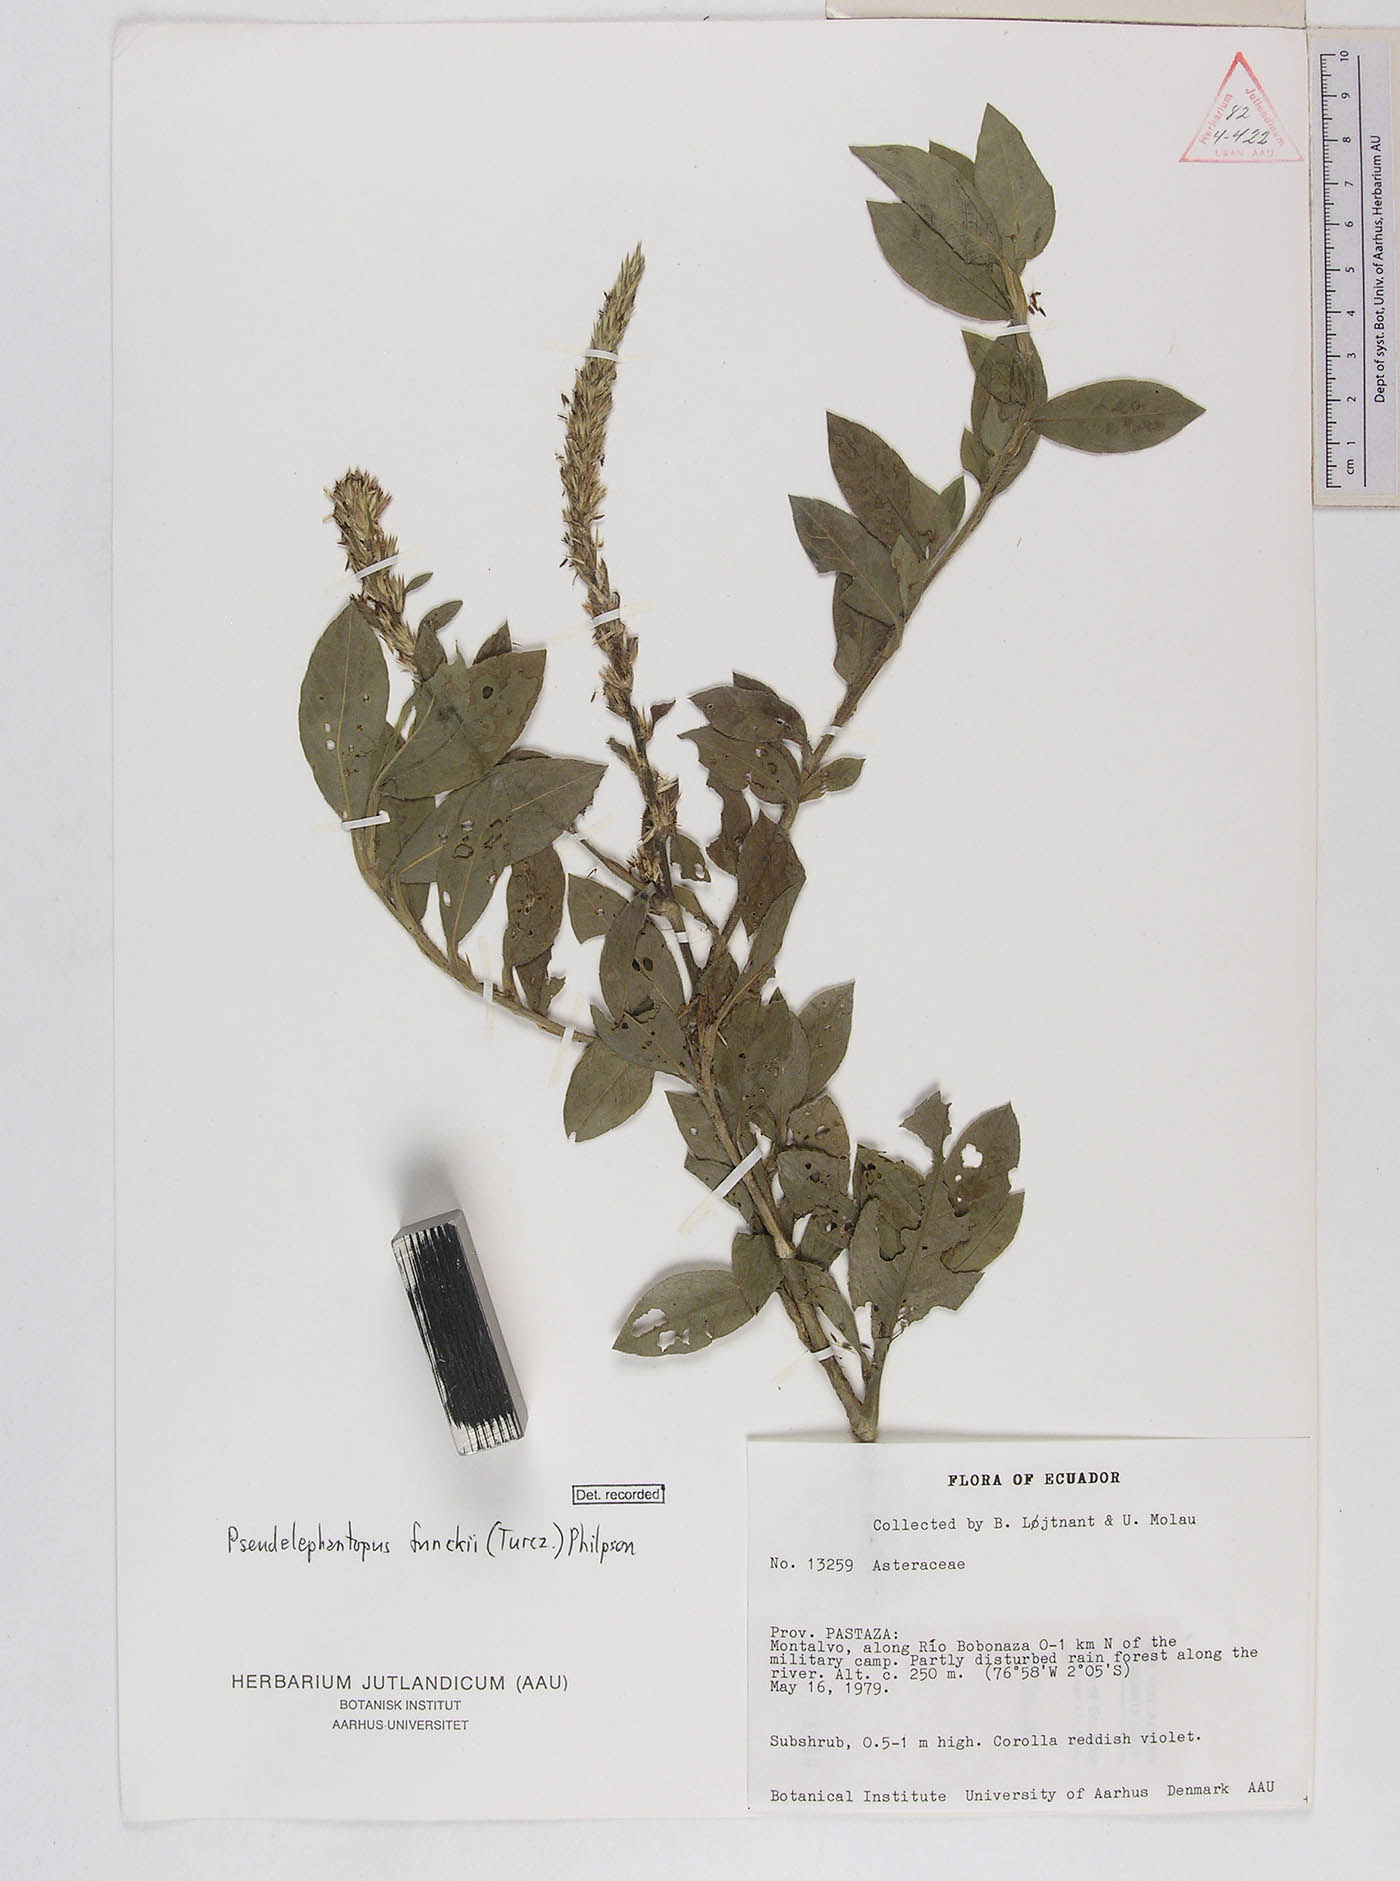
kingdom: Plantae
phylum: Tracheophyta
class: Magnoliopsida
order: Asterales
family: Asteraceae
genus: Pseudelephantopus
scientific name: Pseudelephantopus spiralis
